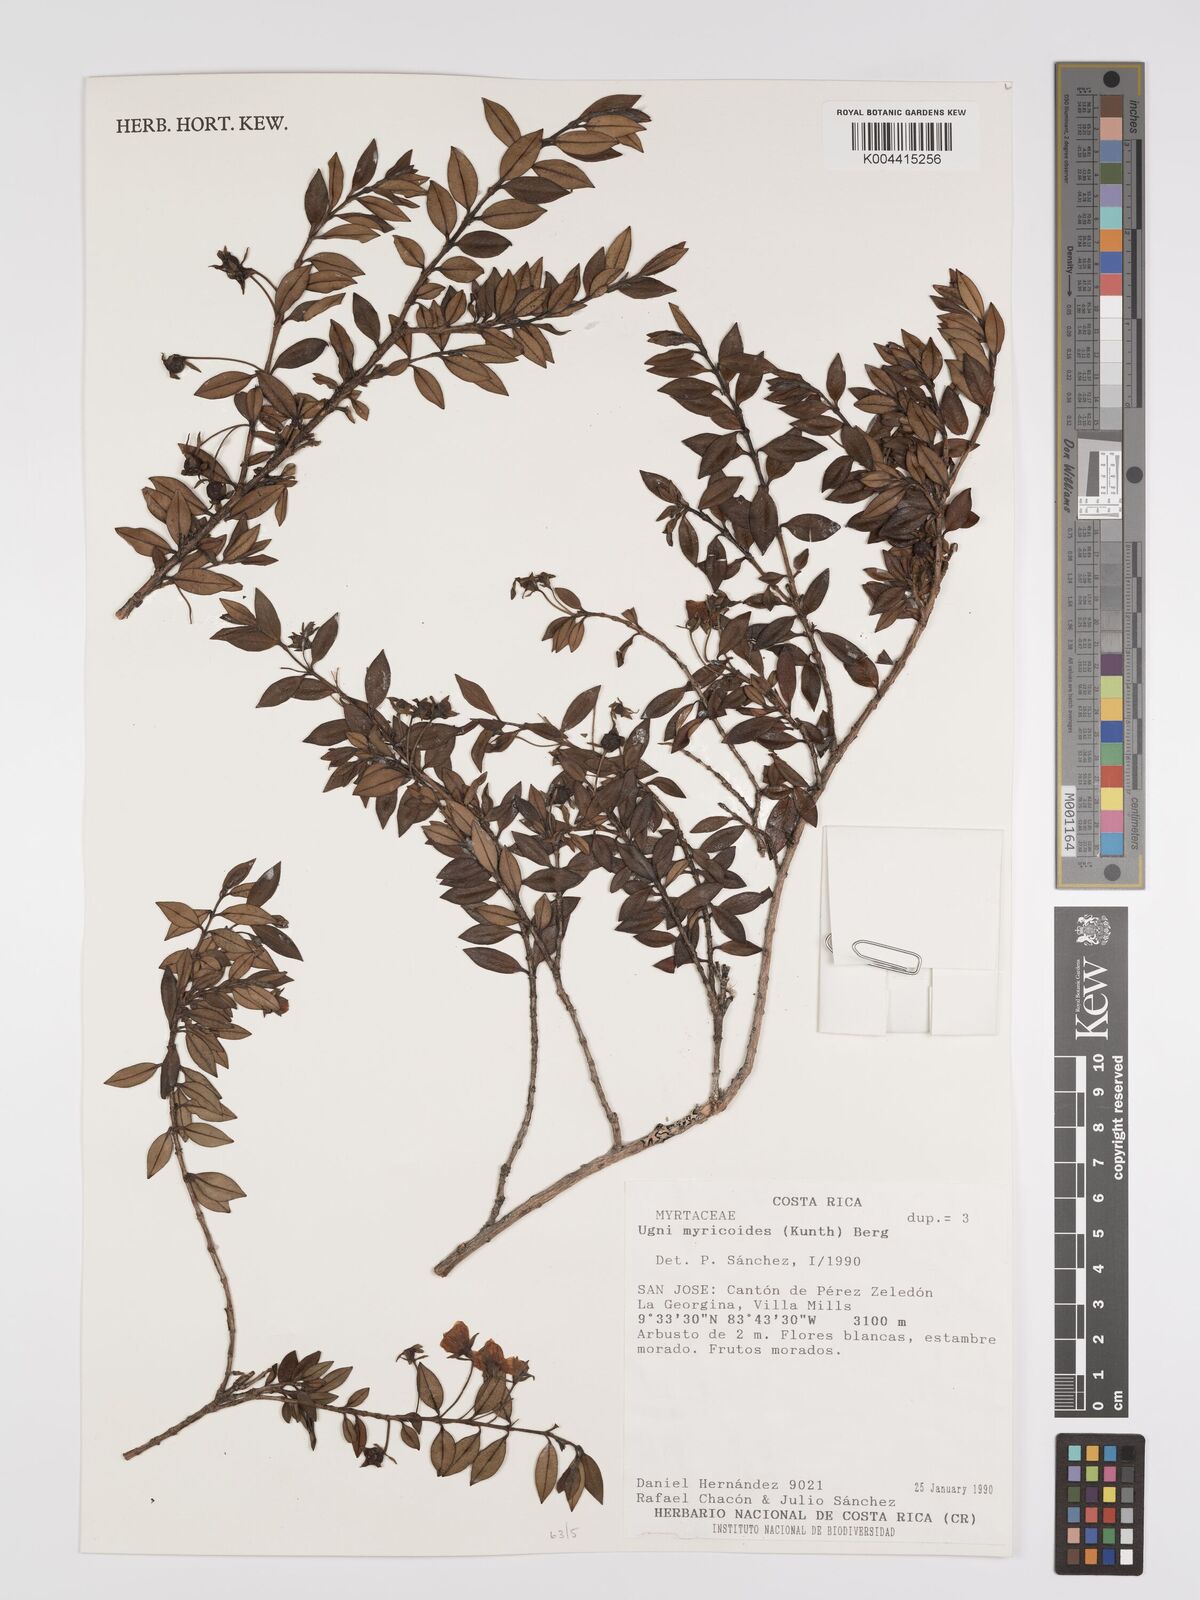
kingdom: Plantae
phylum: Tracheophyta
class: Magnoliopsida
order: Myrtales
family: Myrtaceae
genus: Ugni
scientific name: Ugni myricoides
